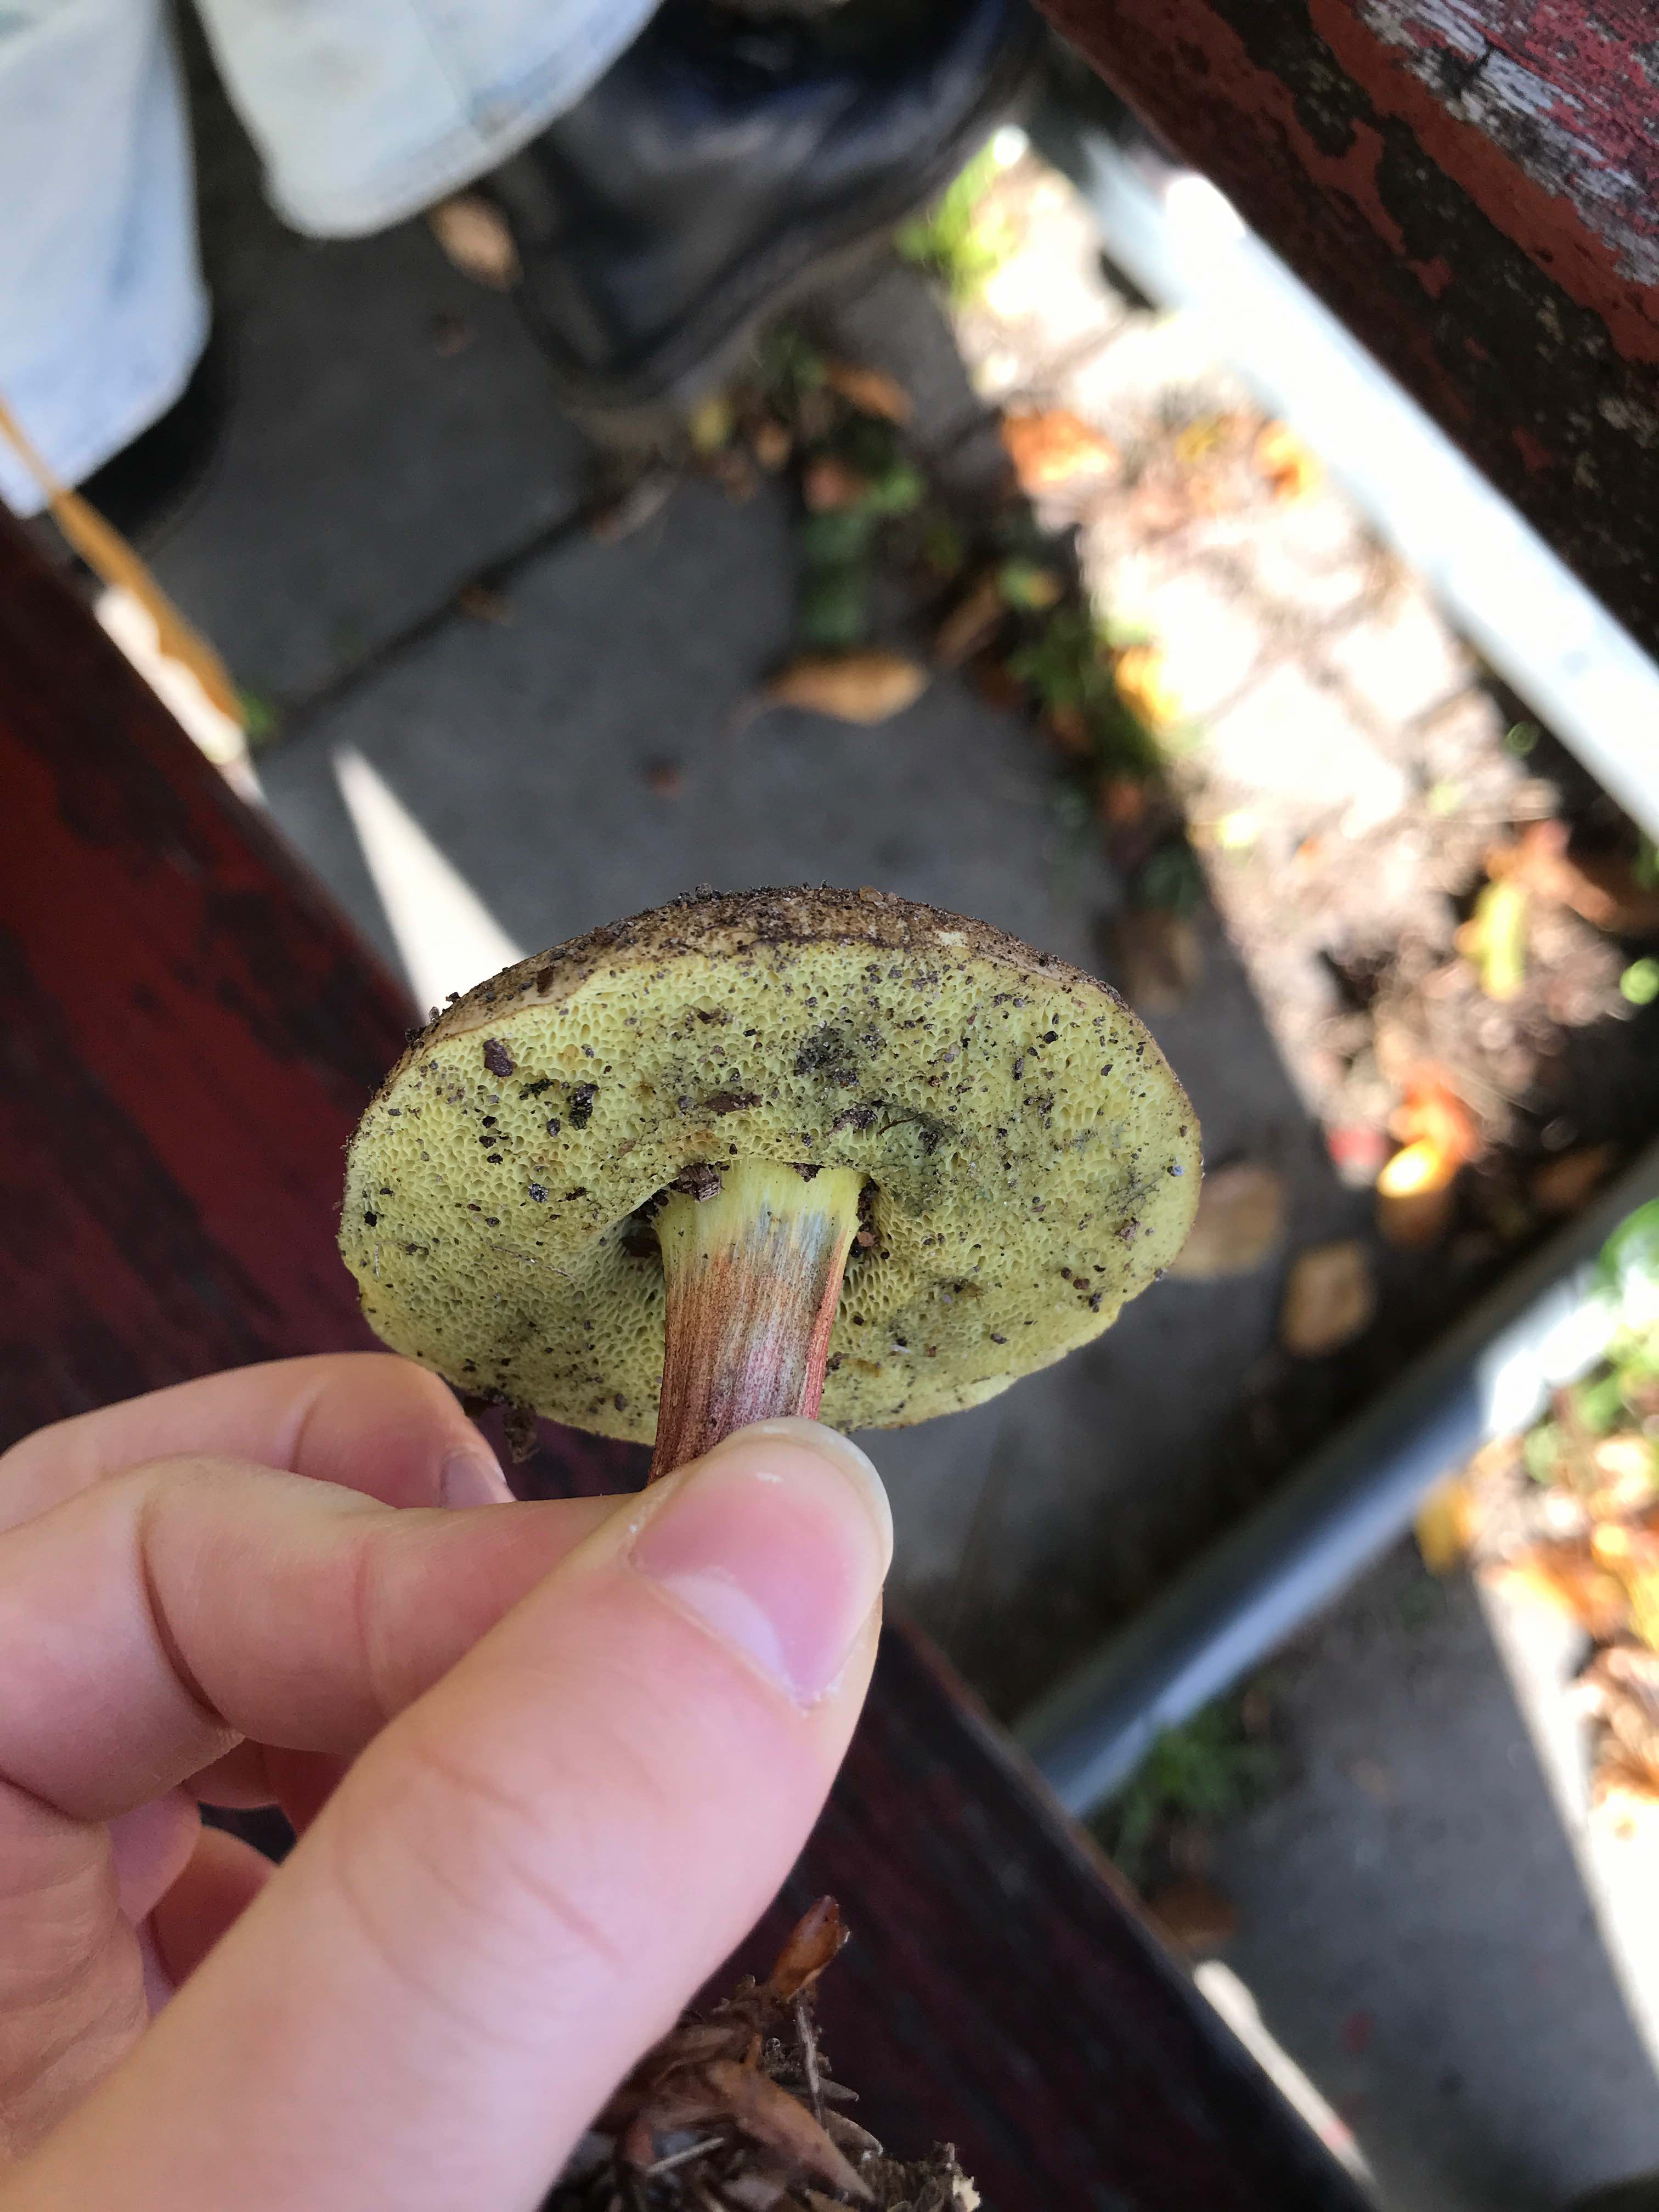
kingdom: Fungi
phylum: Basidiomycota
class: Agaricomycetes
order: Boletales
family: Boletaceae
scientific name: Boletaceae
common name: rørhatfamilien
